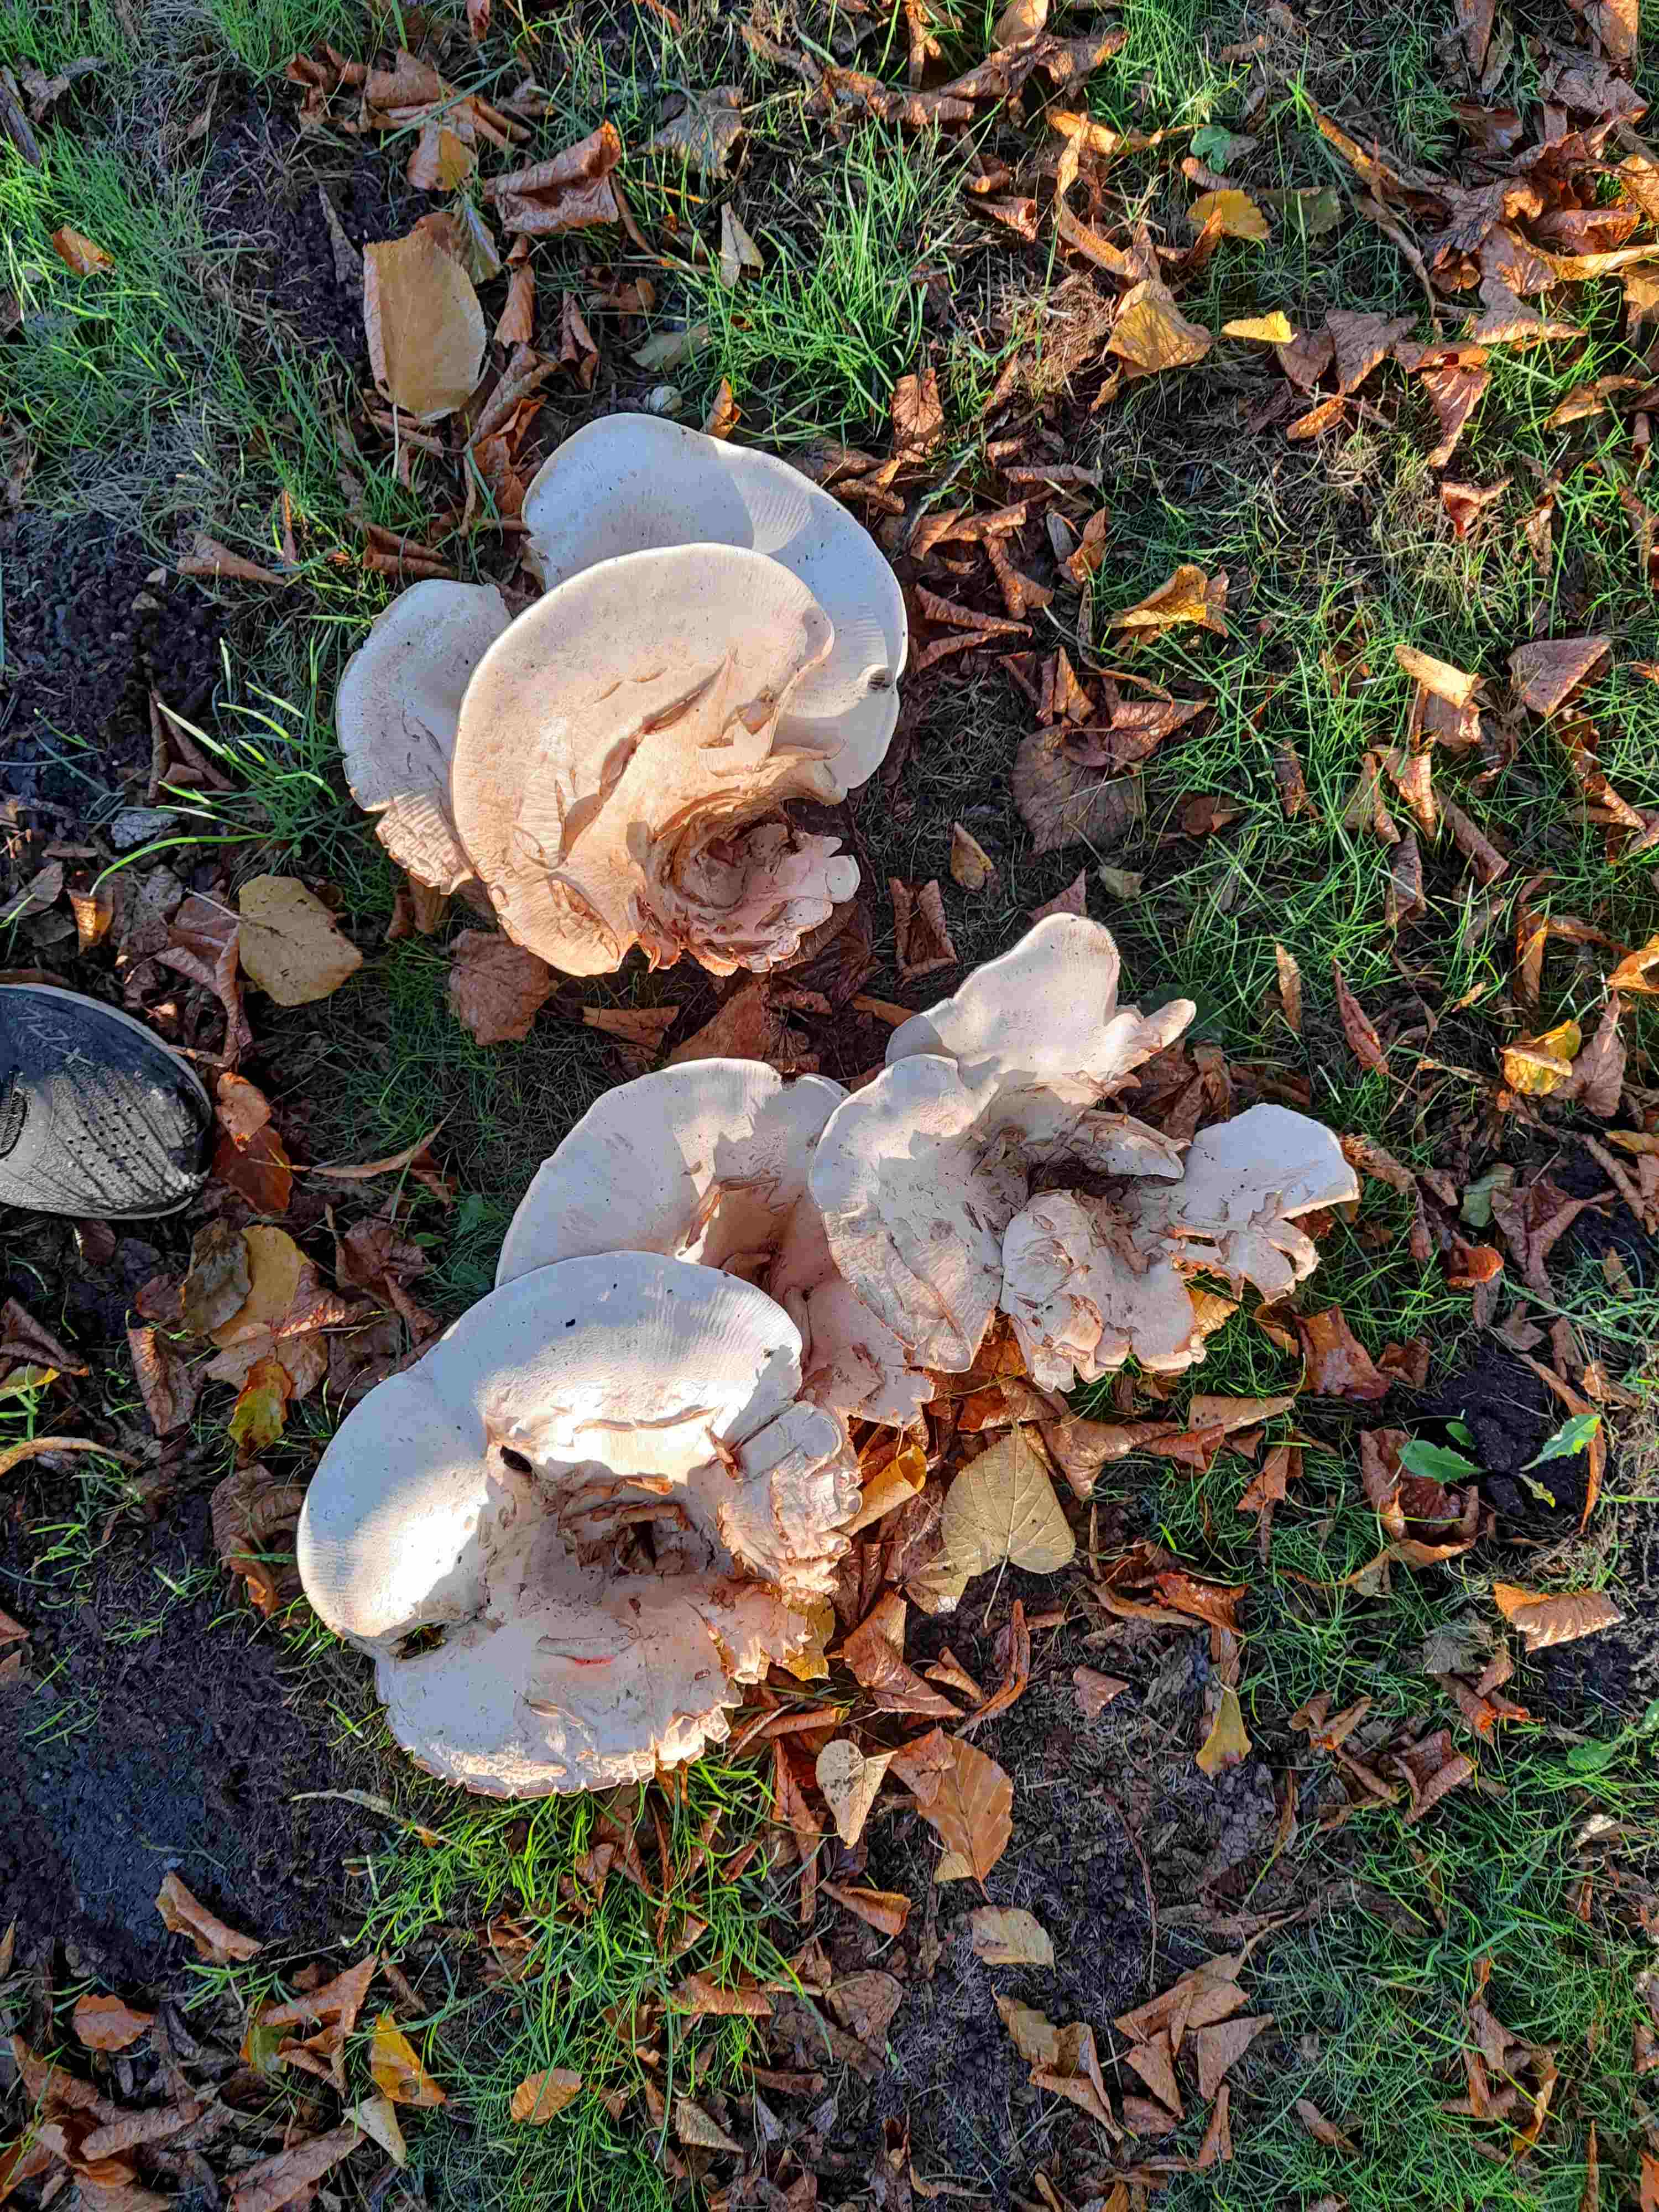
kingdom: Fungi
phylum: Basidiomycota
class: Agaricomycetes
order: Agaricales
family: Tricholomataceae
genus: Aspropaxillus
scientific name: Aspropaxillus giganteus
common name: kæmpe-tragtridderhat
